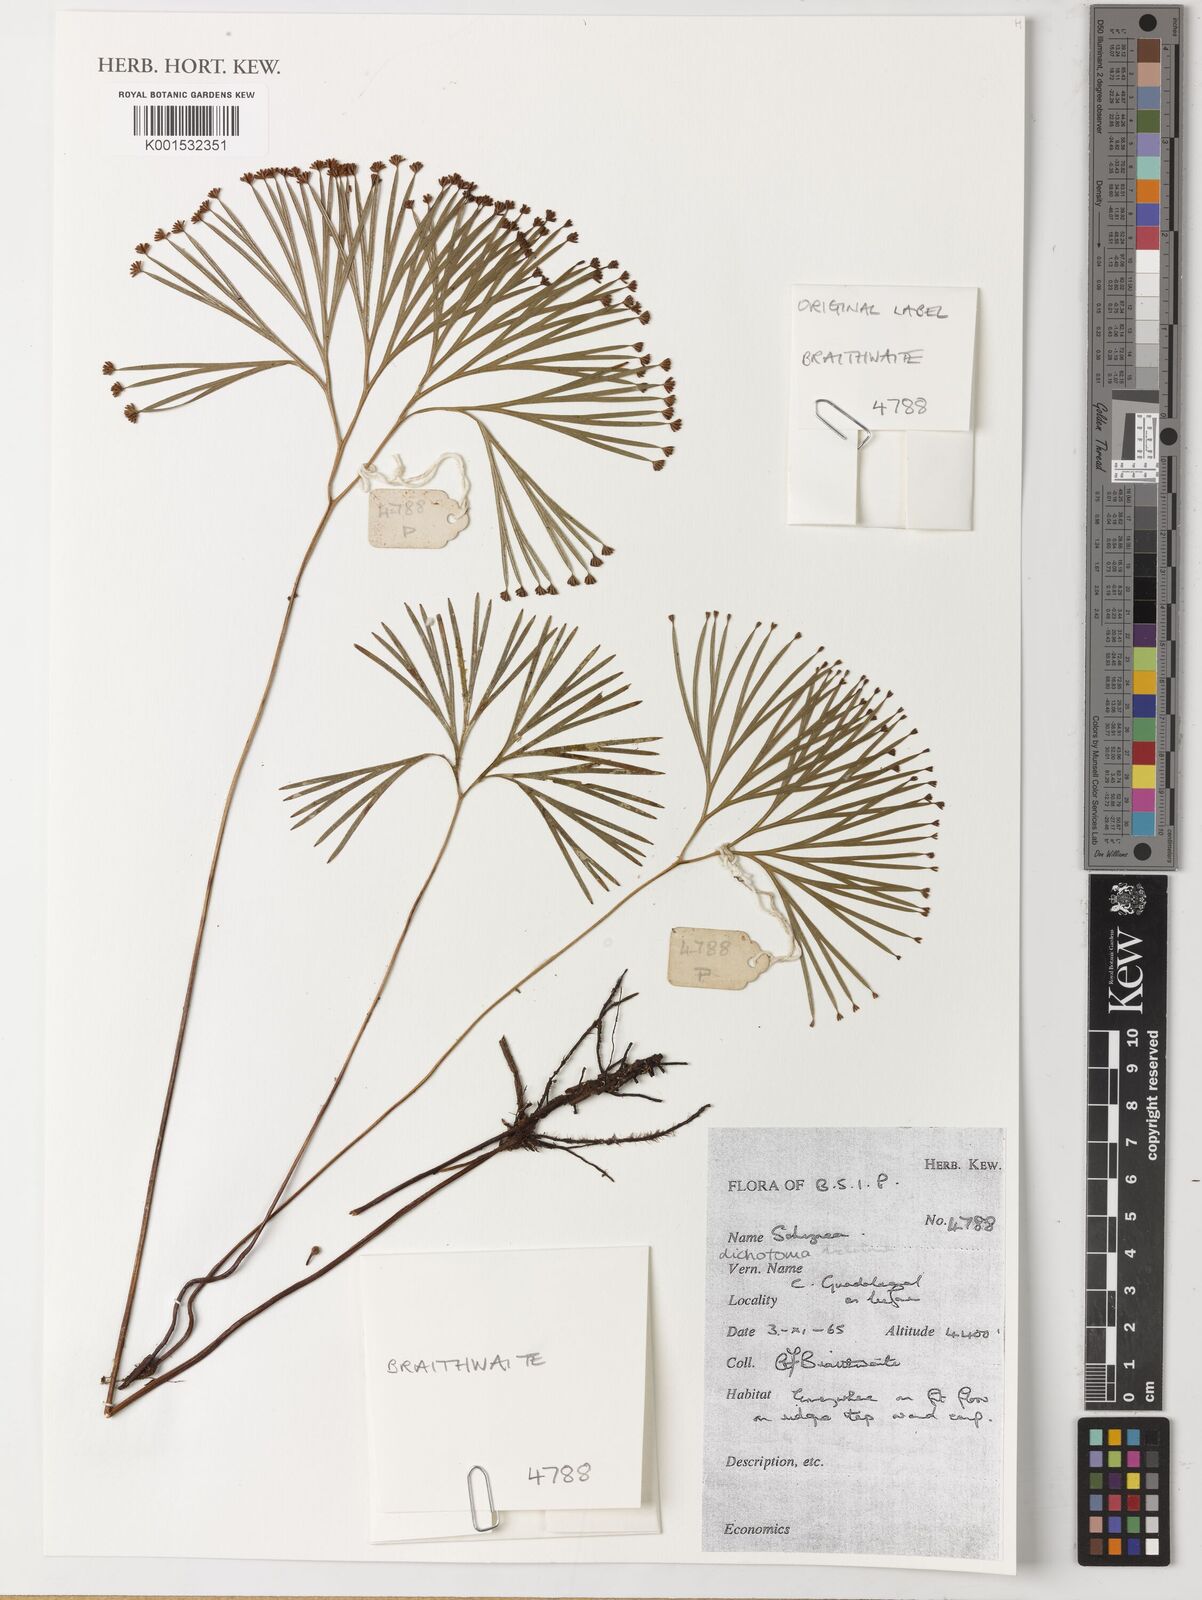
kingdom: Plantae
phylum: Tracheophyta
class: Polypodiopsida
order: Schizaeales
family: Schizaeaceae
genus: Schizaea
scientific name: Schizaea dichotoma
